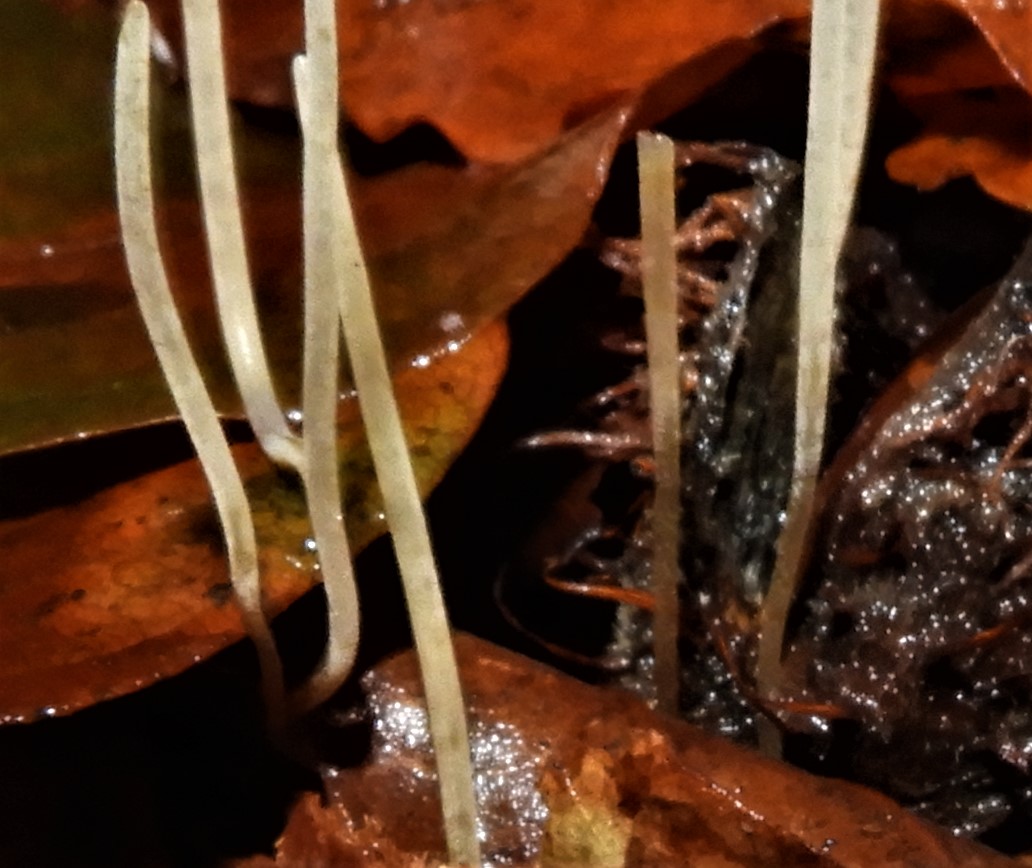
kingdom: Fungi
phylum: Basidiomycota
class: Agaricomycetes
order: Agaricales
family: Typhulaceae
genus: Typhula
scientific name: Typhula juncea
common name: trådagtig rørkølle
